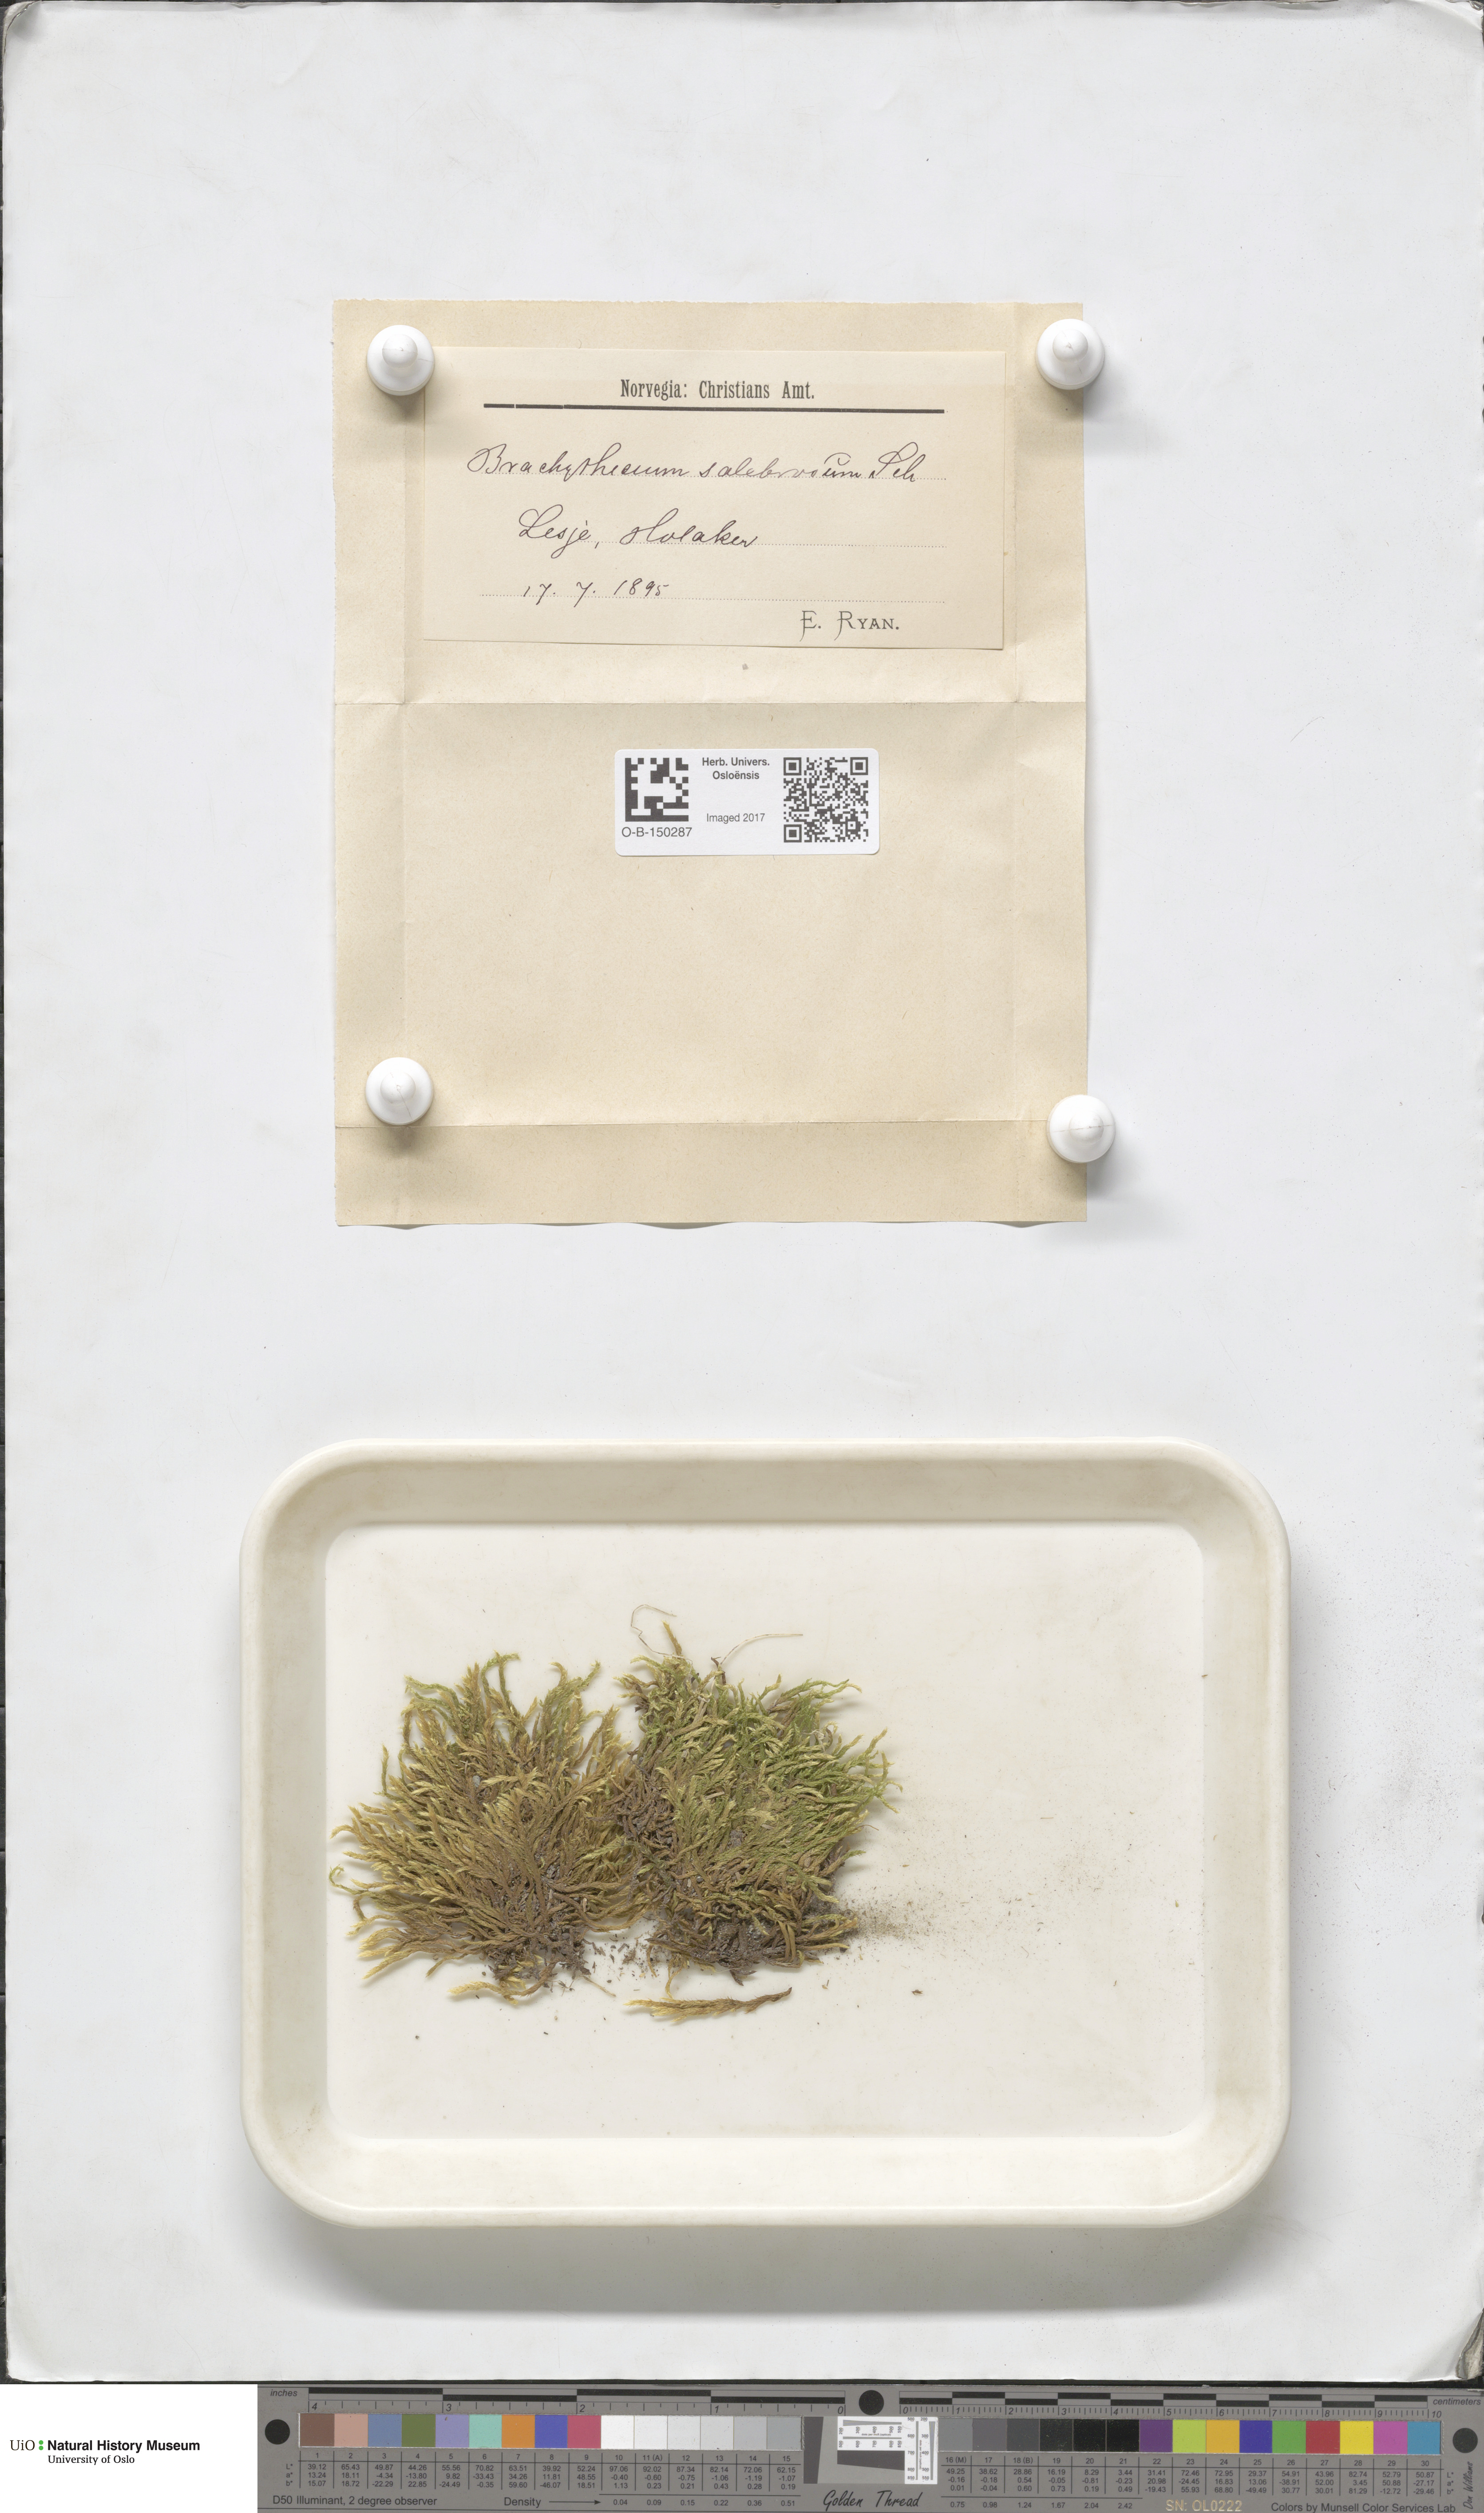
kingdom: Plantae
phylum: Bryophyta
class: Bryopsida
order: Hypnales
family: Brachytheciaceae
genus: Brachythecium
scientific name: Brachythecium salebrosum
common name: Smooth-stalk feather-moss
